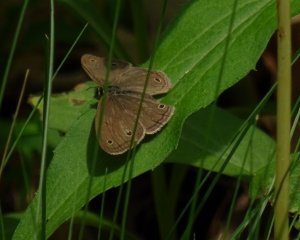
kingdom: Animalia
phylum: Arthropoda
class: Insecta
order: Lepidoptera
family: Nymphalidae
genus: Euptychia
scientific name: Euptychia cymela
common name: Little Wood Satyr
